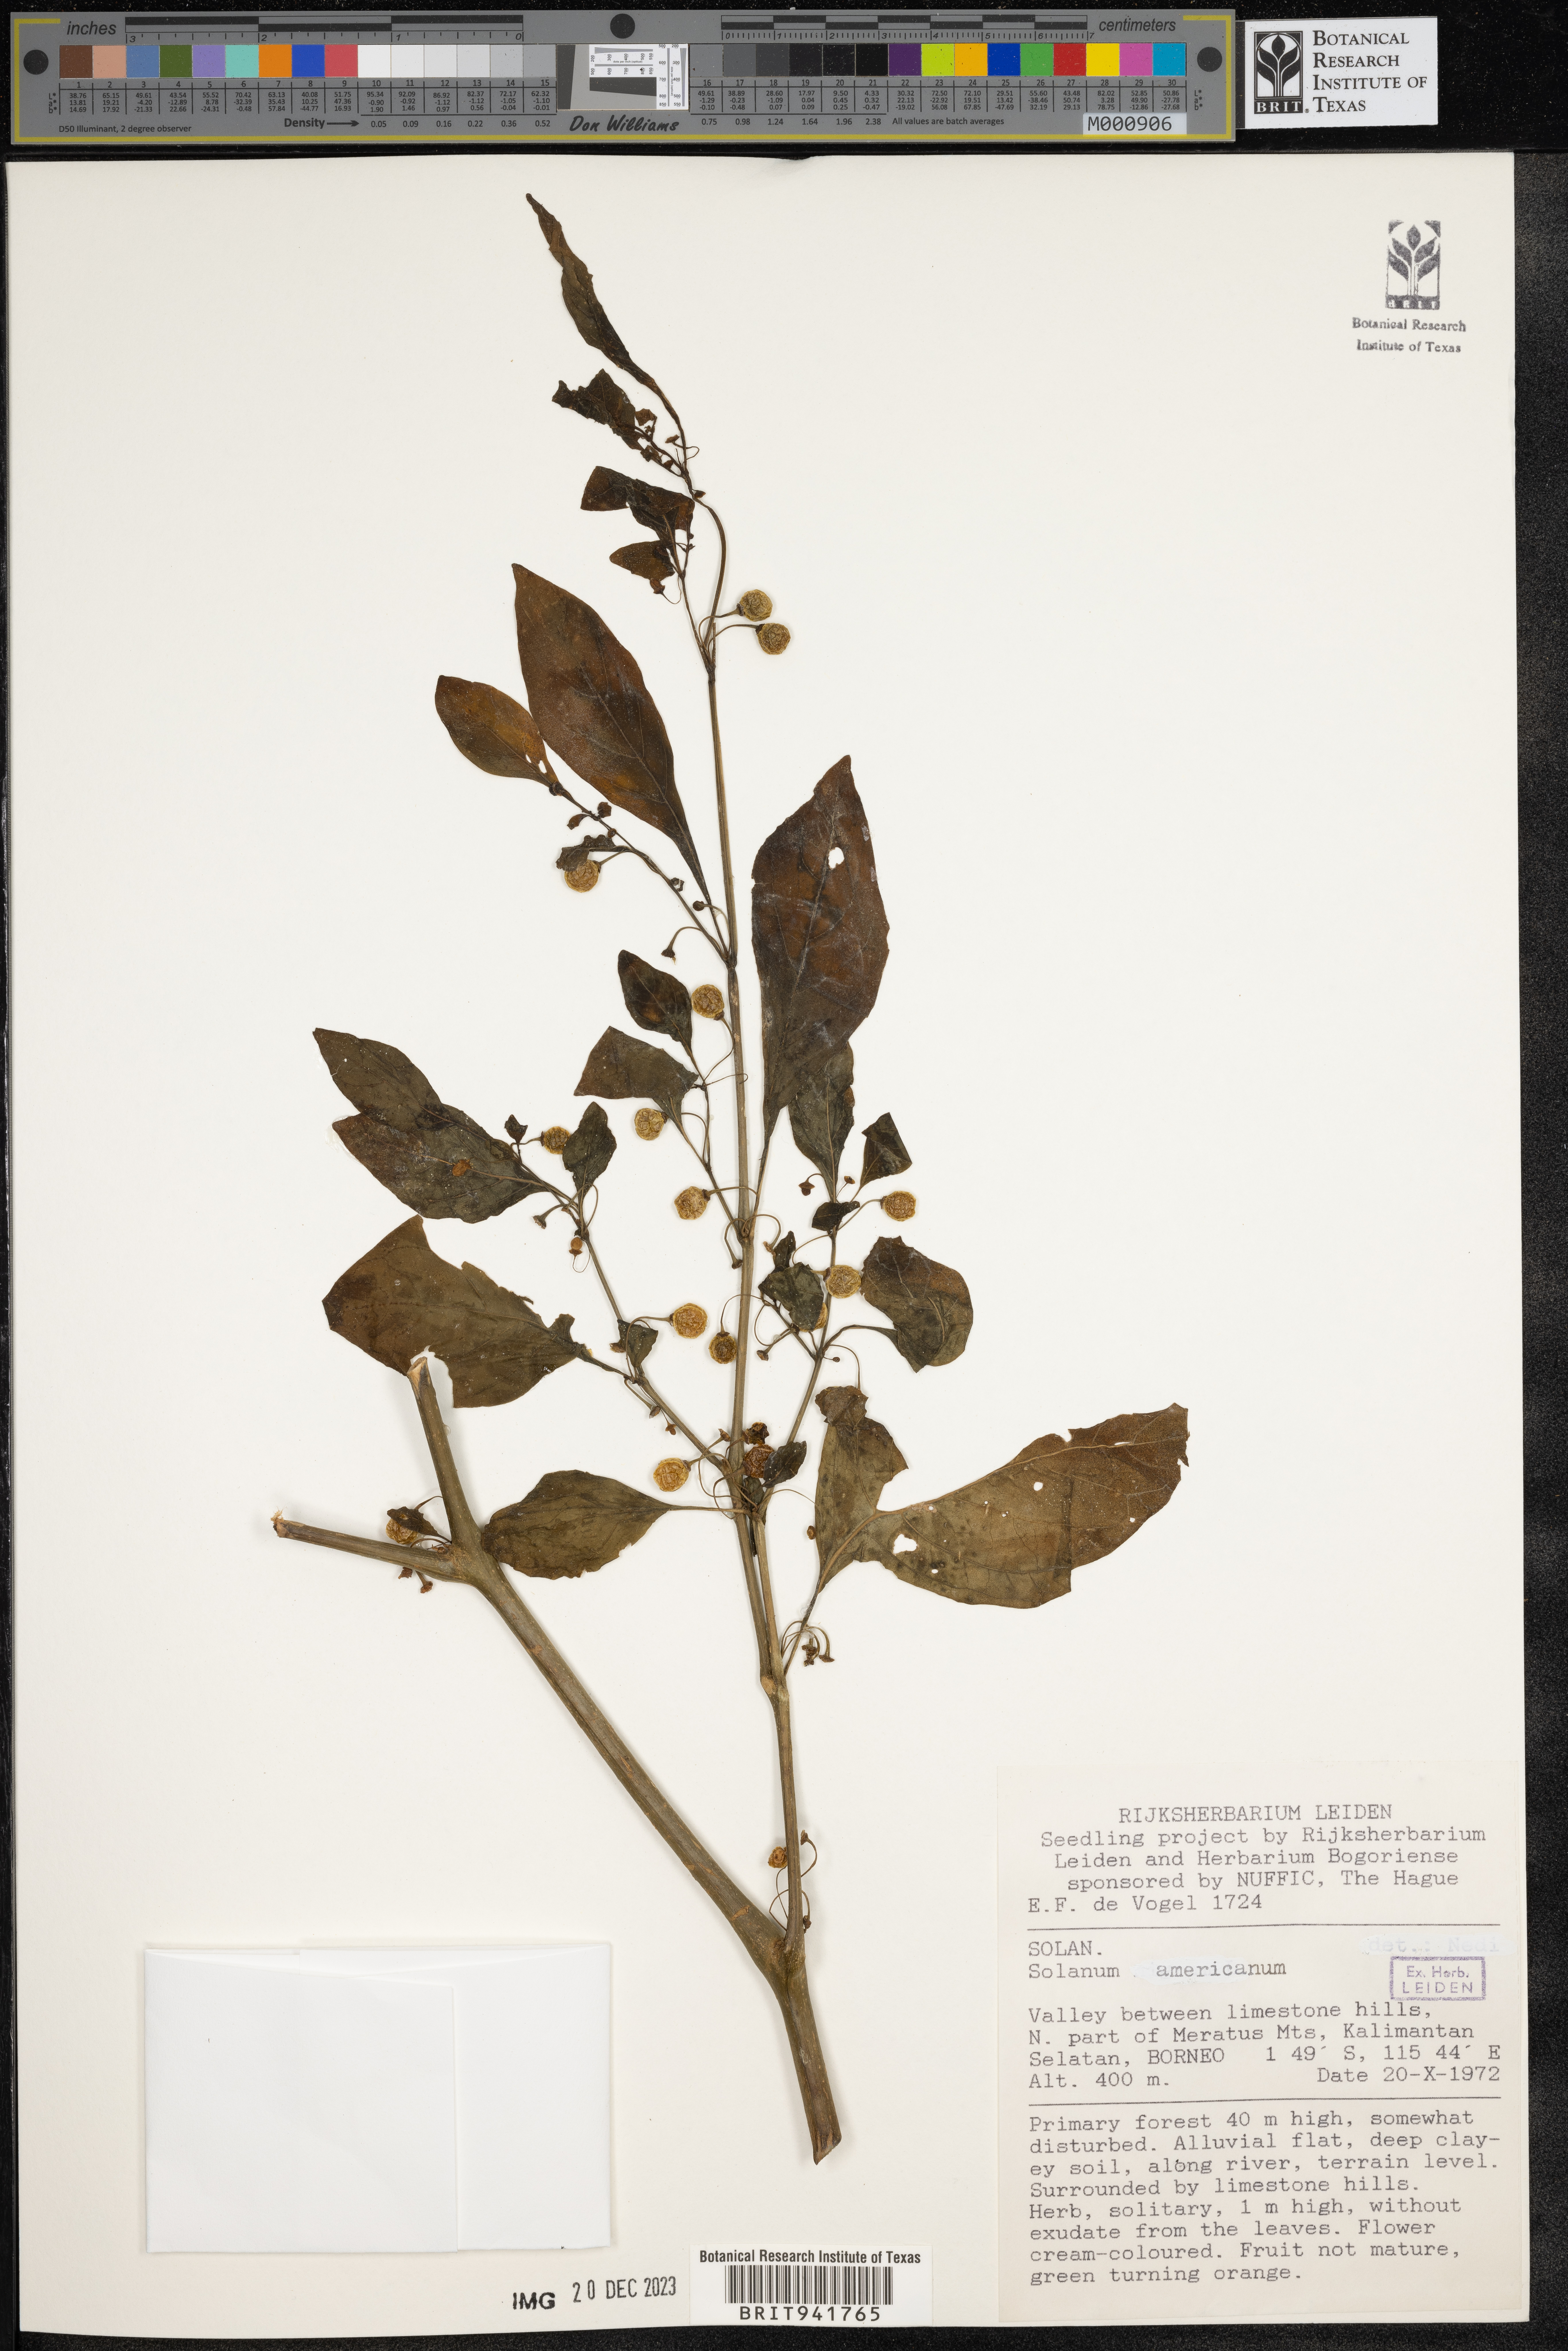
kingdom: Plantae
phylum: Tracheophyta
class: Magnoliopsida
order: Solanales
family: Solanaceae
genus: Solanum
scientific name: Solanum
